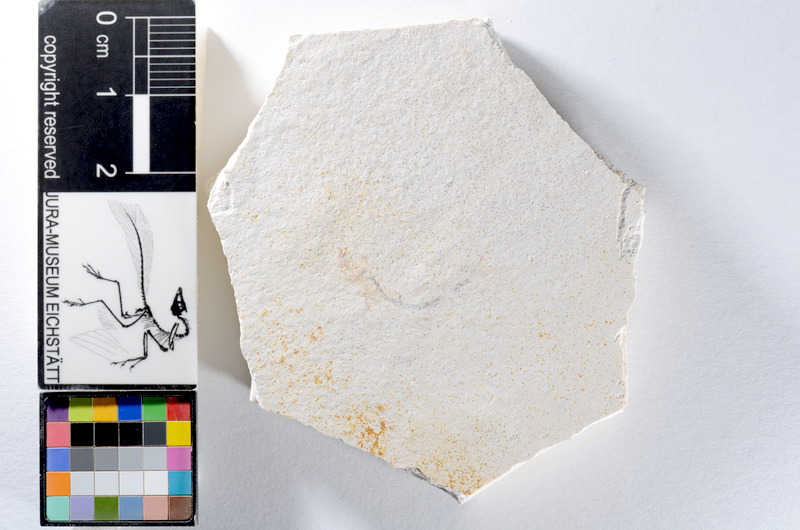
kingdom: Animalia
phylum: Chordata
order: Salmoniformes
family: Orthogonikleithridae
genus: Orthogonikleithrus
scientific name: Orthogonikleithrus hoelli
